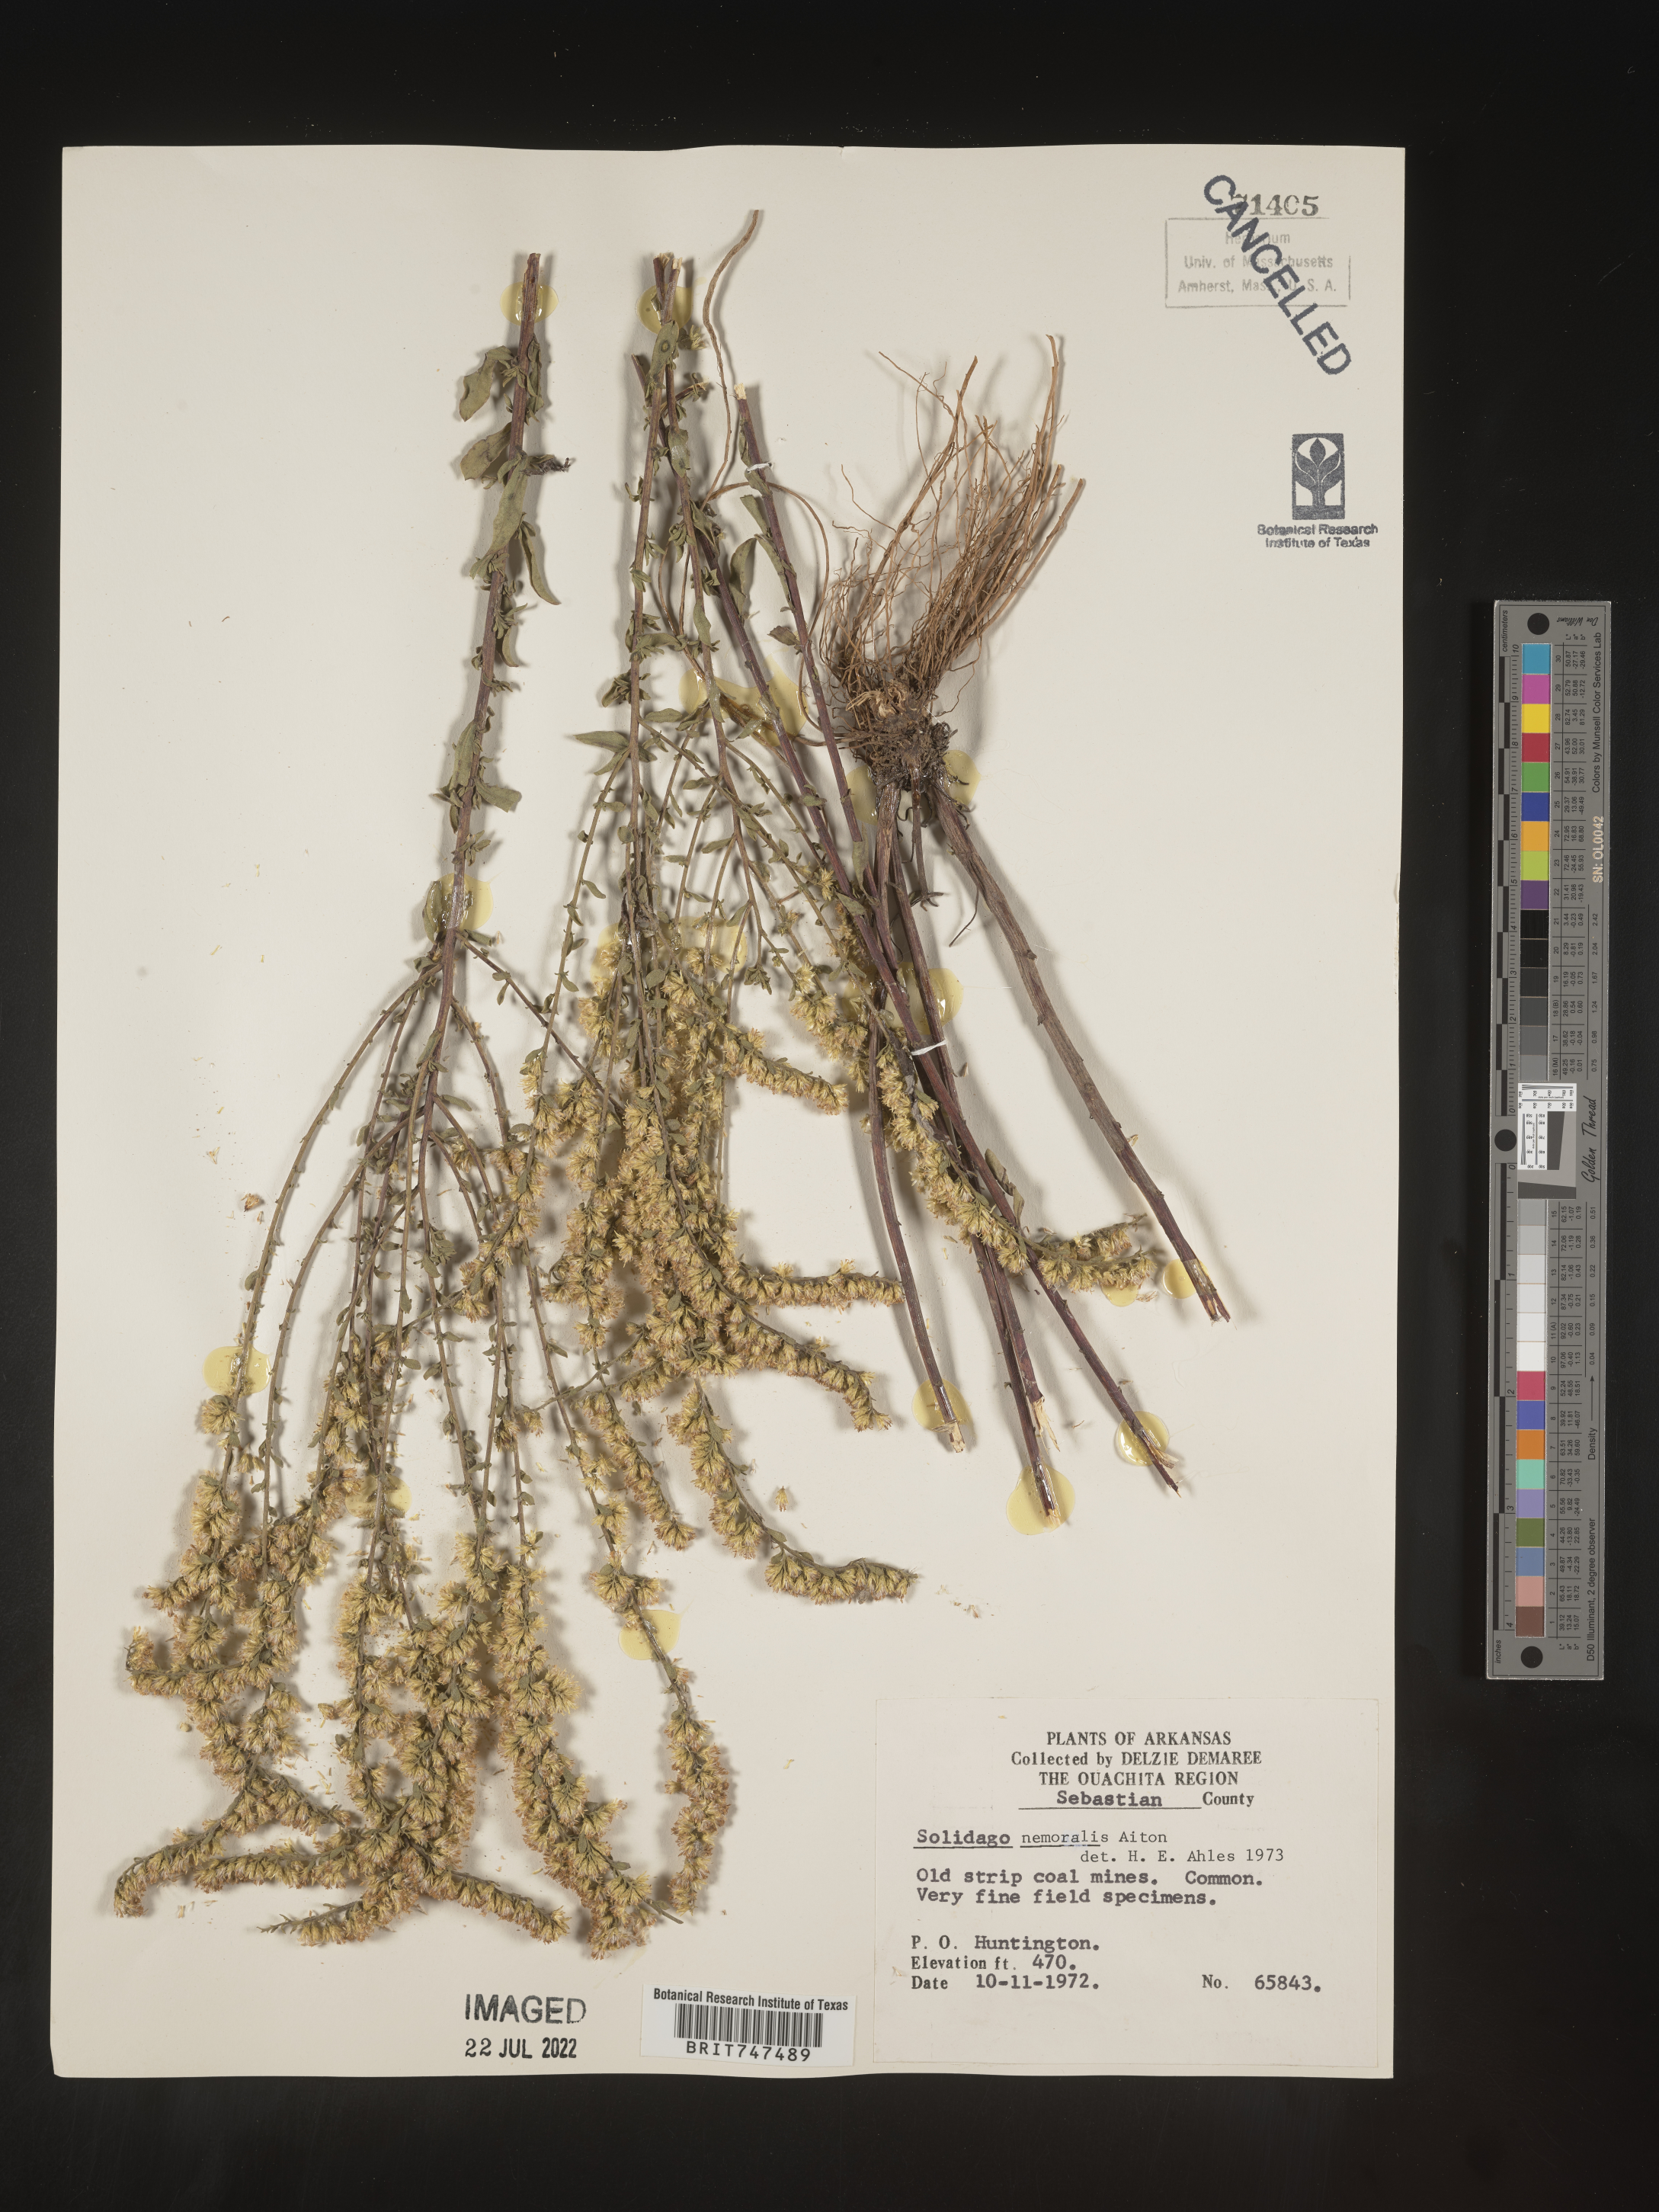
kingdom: Plantae
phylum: Tracheophyta
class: Magnoliopsida
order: Asterales
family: Asteraceae
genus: Solidago
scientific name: Solidago nemoralis
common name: Grey goldenrod
